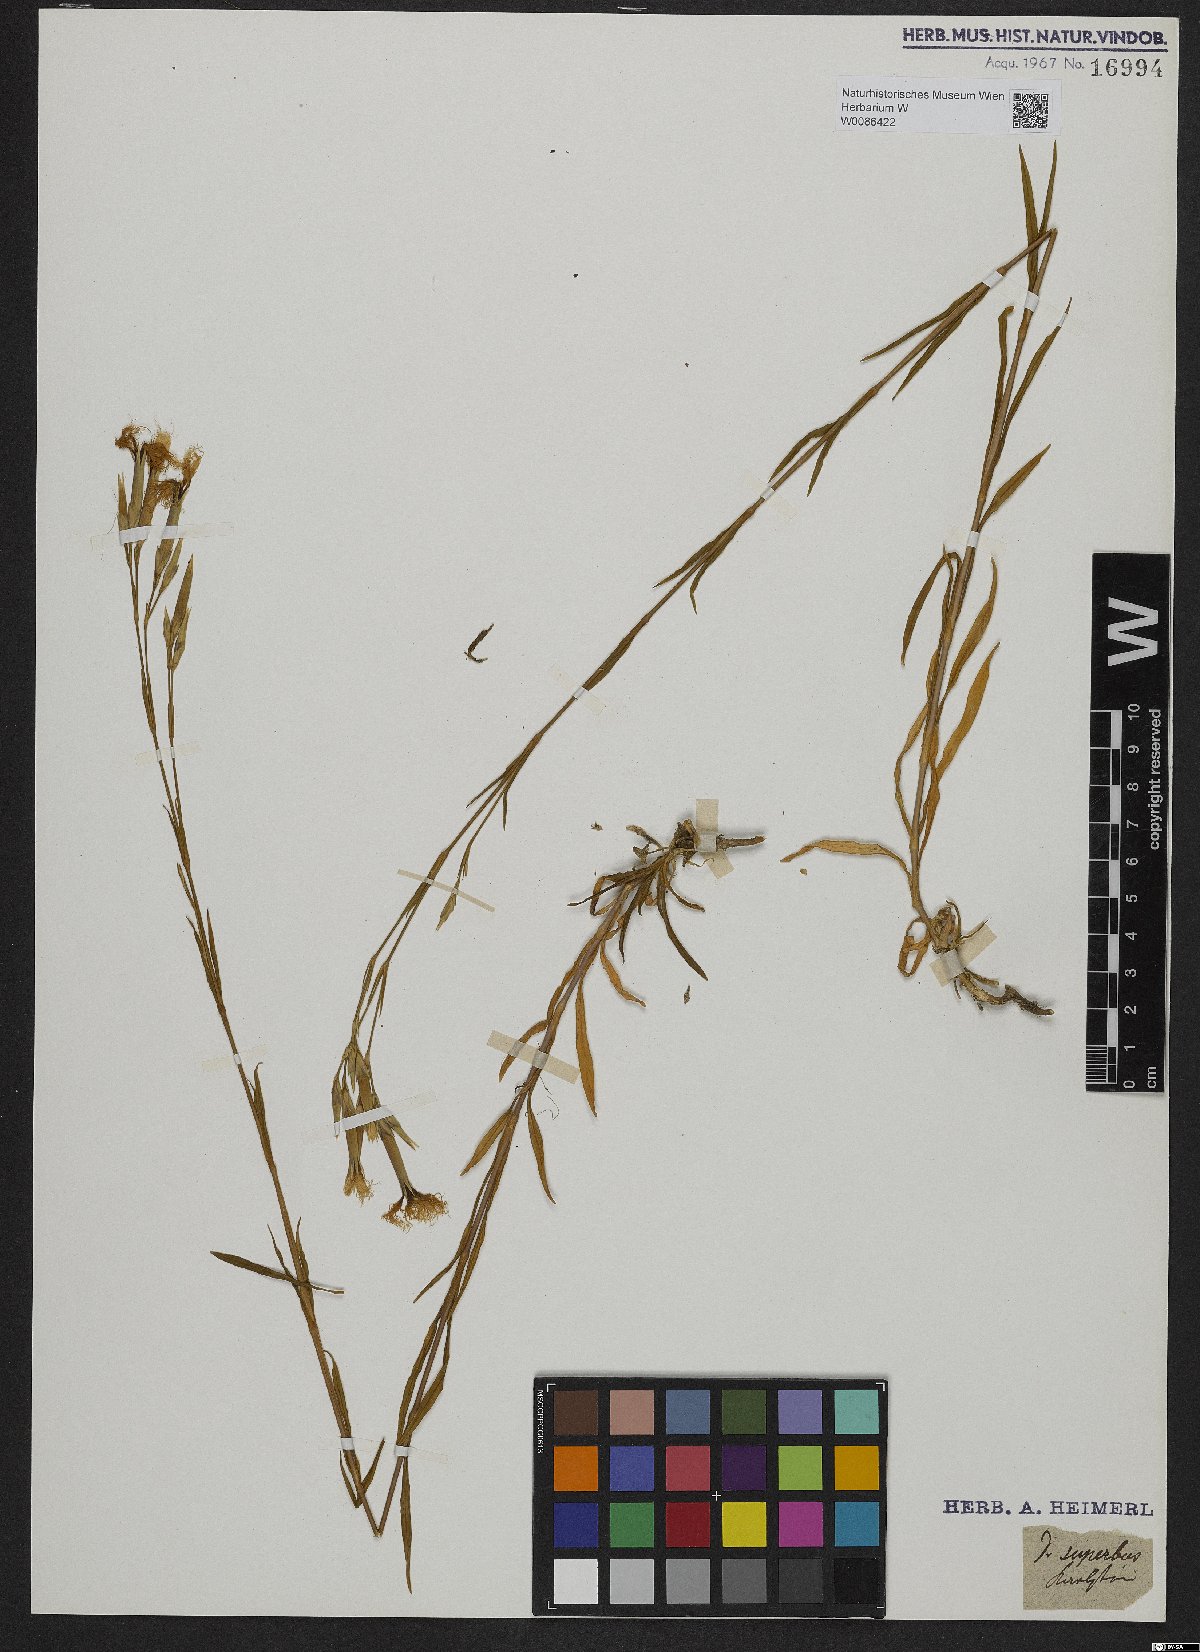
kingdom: Plantae
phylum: Tracheophyta
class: Magnoliopsida
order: Caryophyllales
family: Caryophyllaceae
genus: Dianthus
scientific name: Dianthus superbus
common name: Fringed pink
